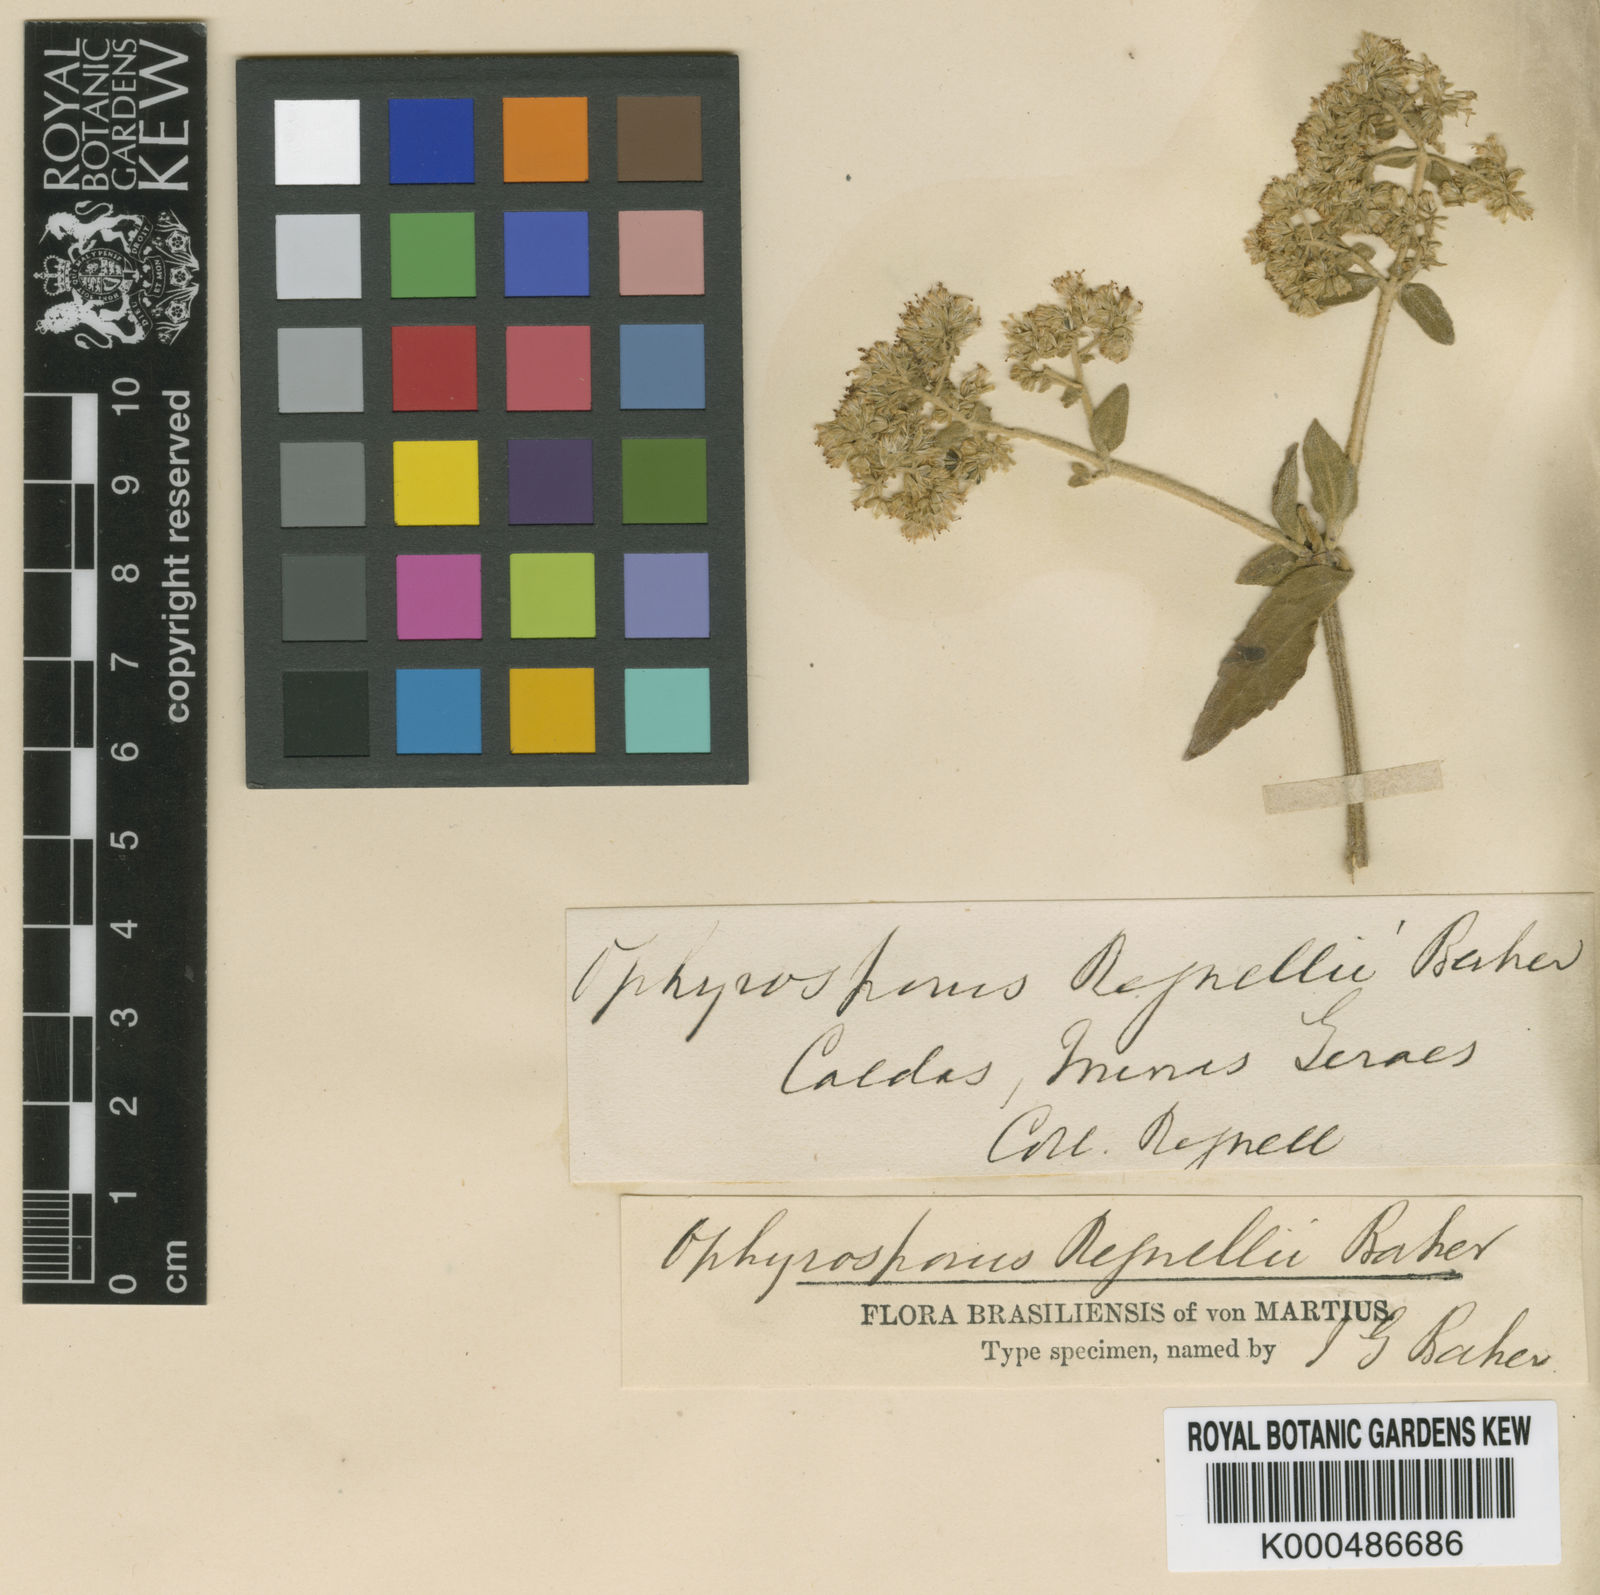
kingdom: Plantae
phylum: Tracheophyta
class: Magnoliopsida
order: Asterales
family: Asteraceae
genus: Ophryosporus
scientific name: Ophryosporus regnellii
